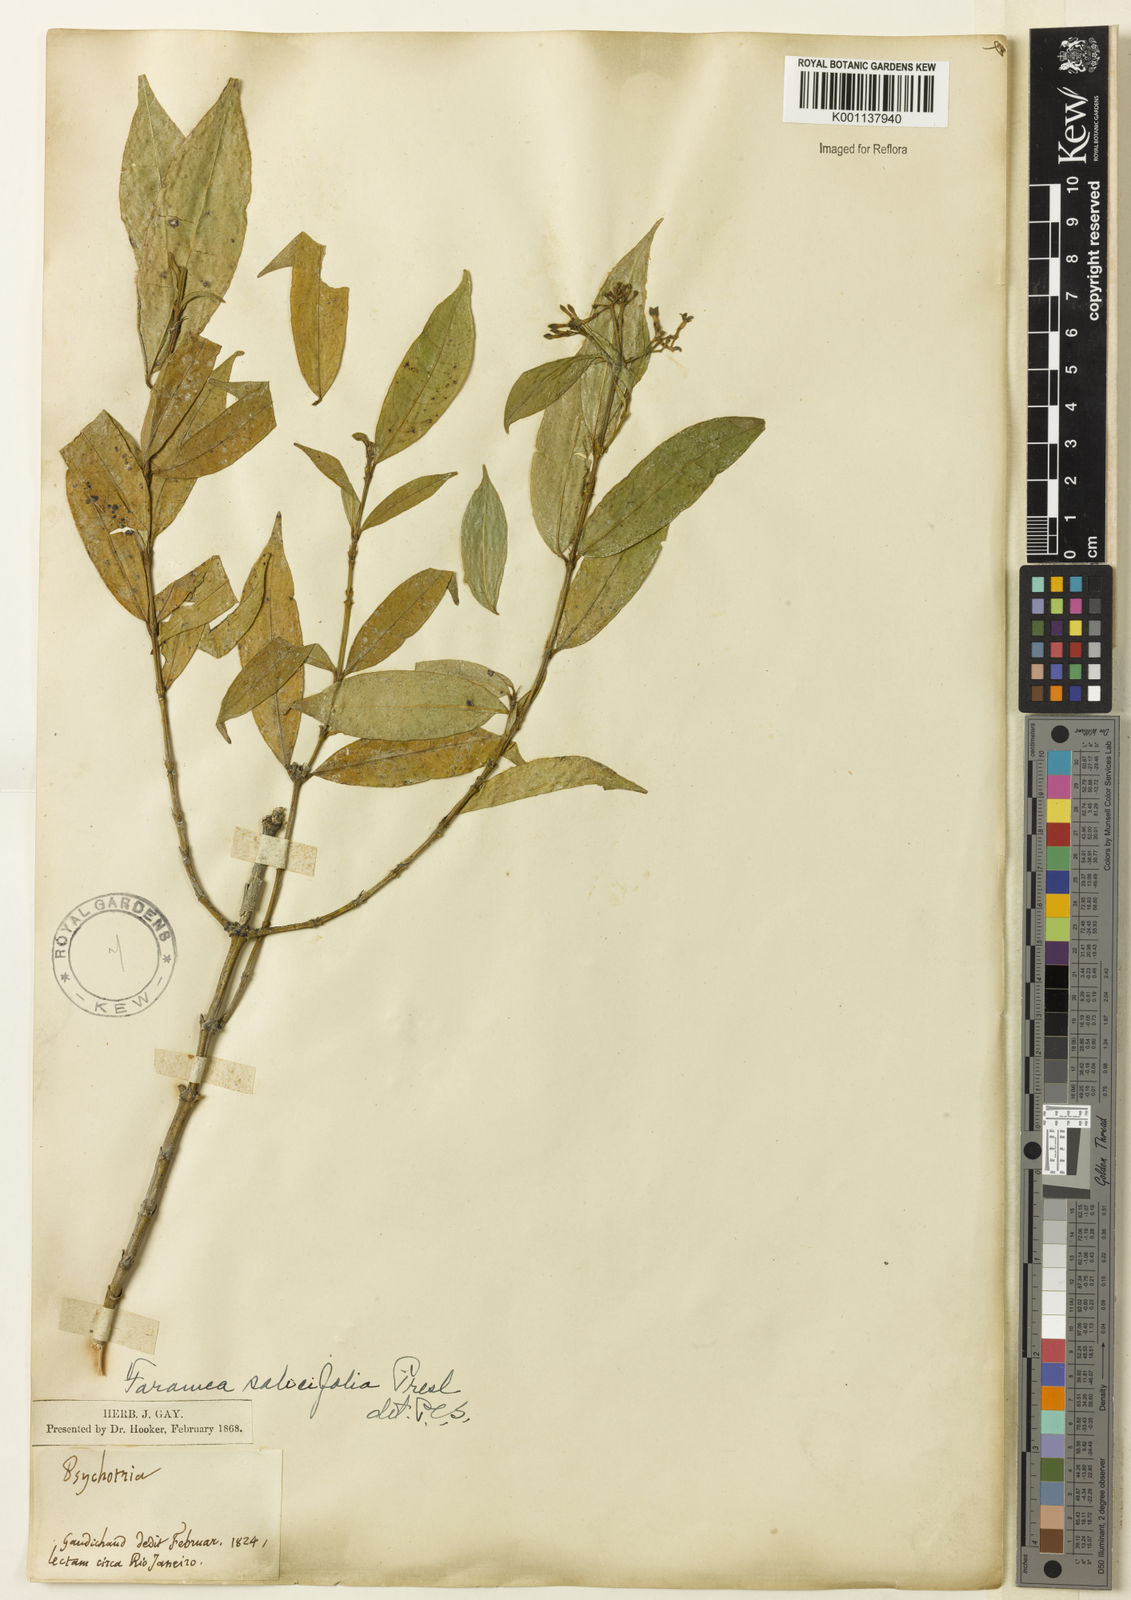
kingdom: Plantae
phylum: Tracheophyta
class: Magnoliopsida
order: Gentianales
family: Rubiaceae
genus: Faramea
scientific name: Faramea multiflora
